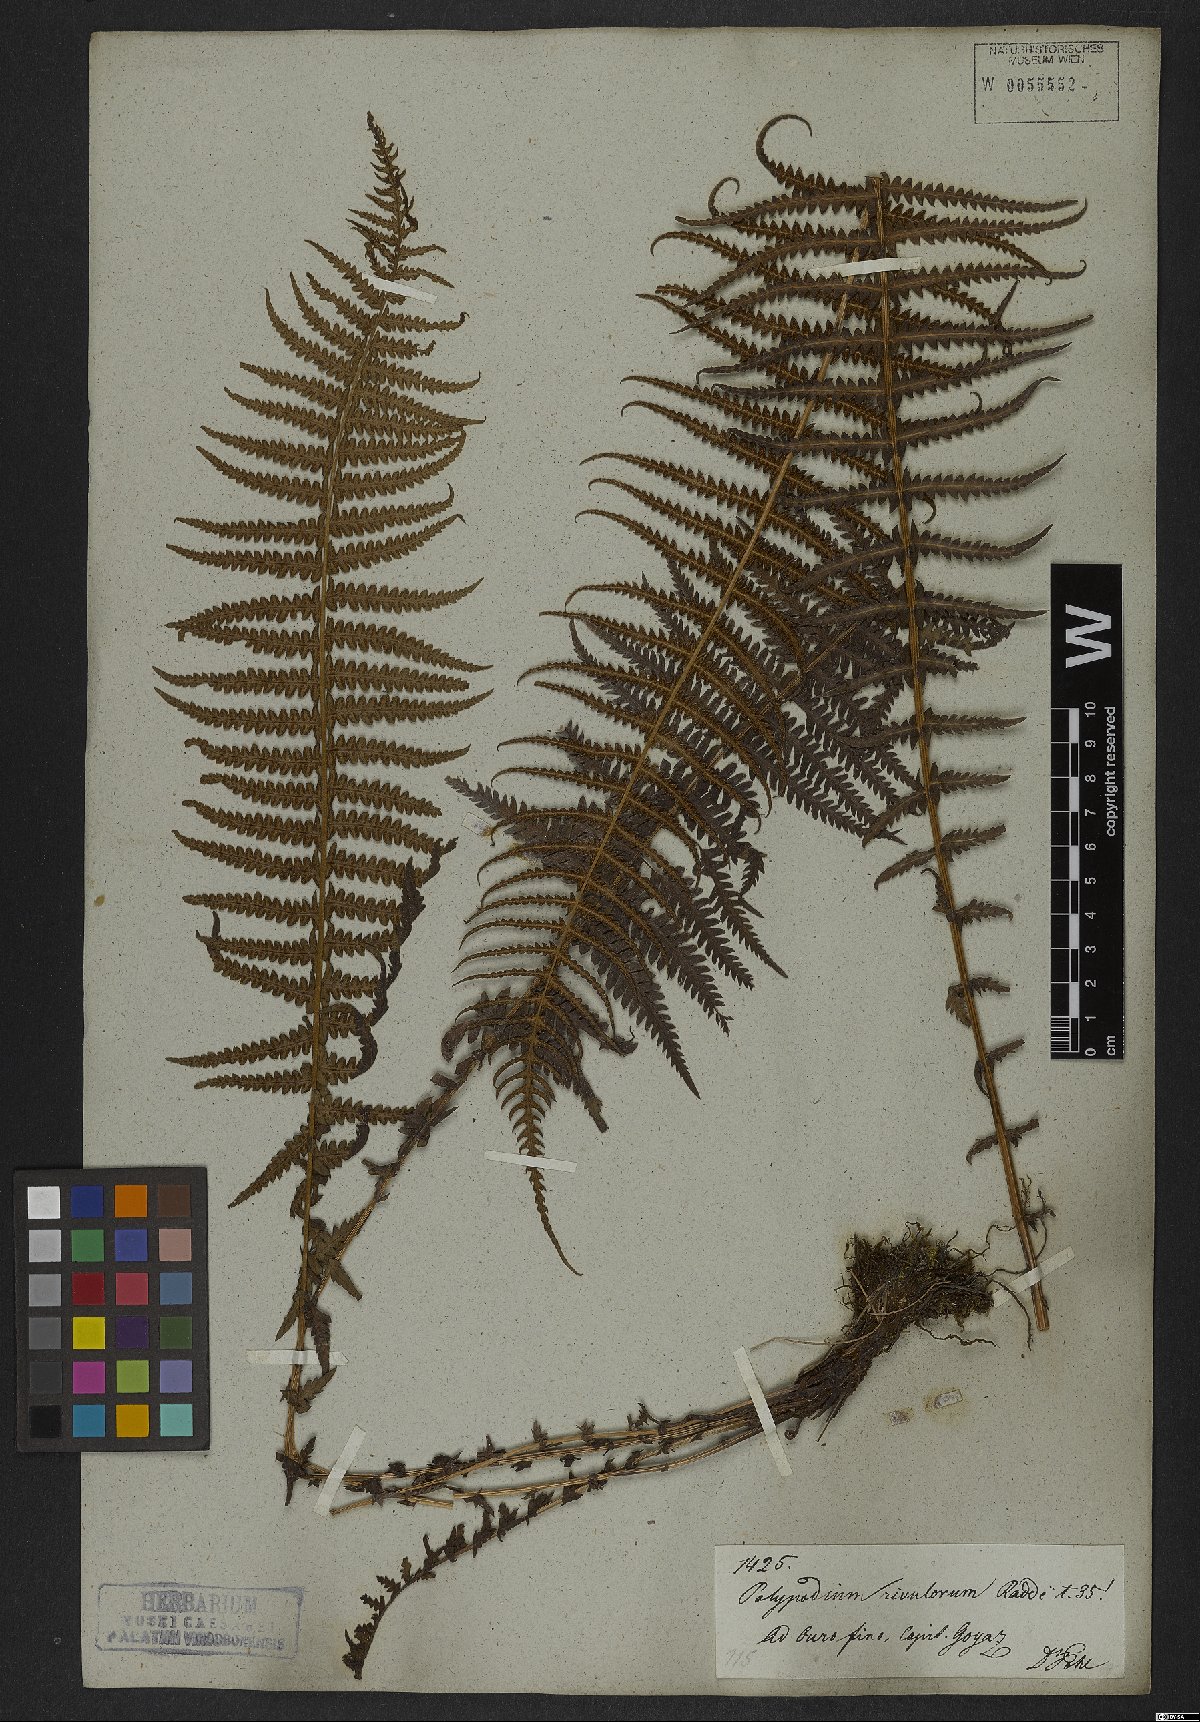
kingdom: Plantae
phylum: Tracheophyta
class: Polypodiopsida
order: Polypodiales
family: Thelypteridaceae
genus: Amauropelta
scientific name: Amauropelta opposita
